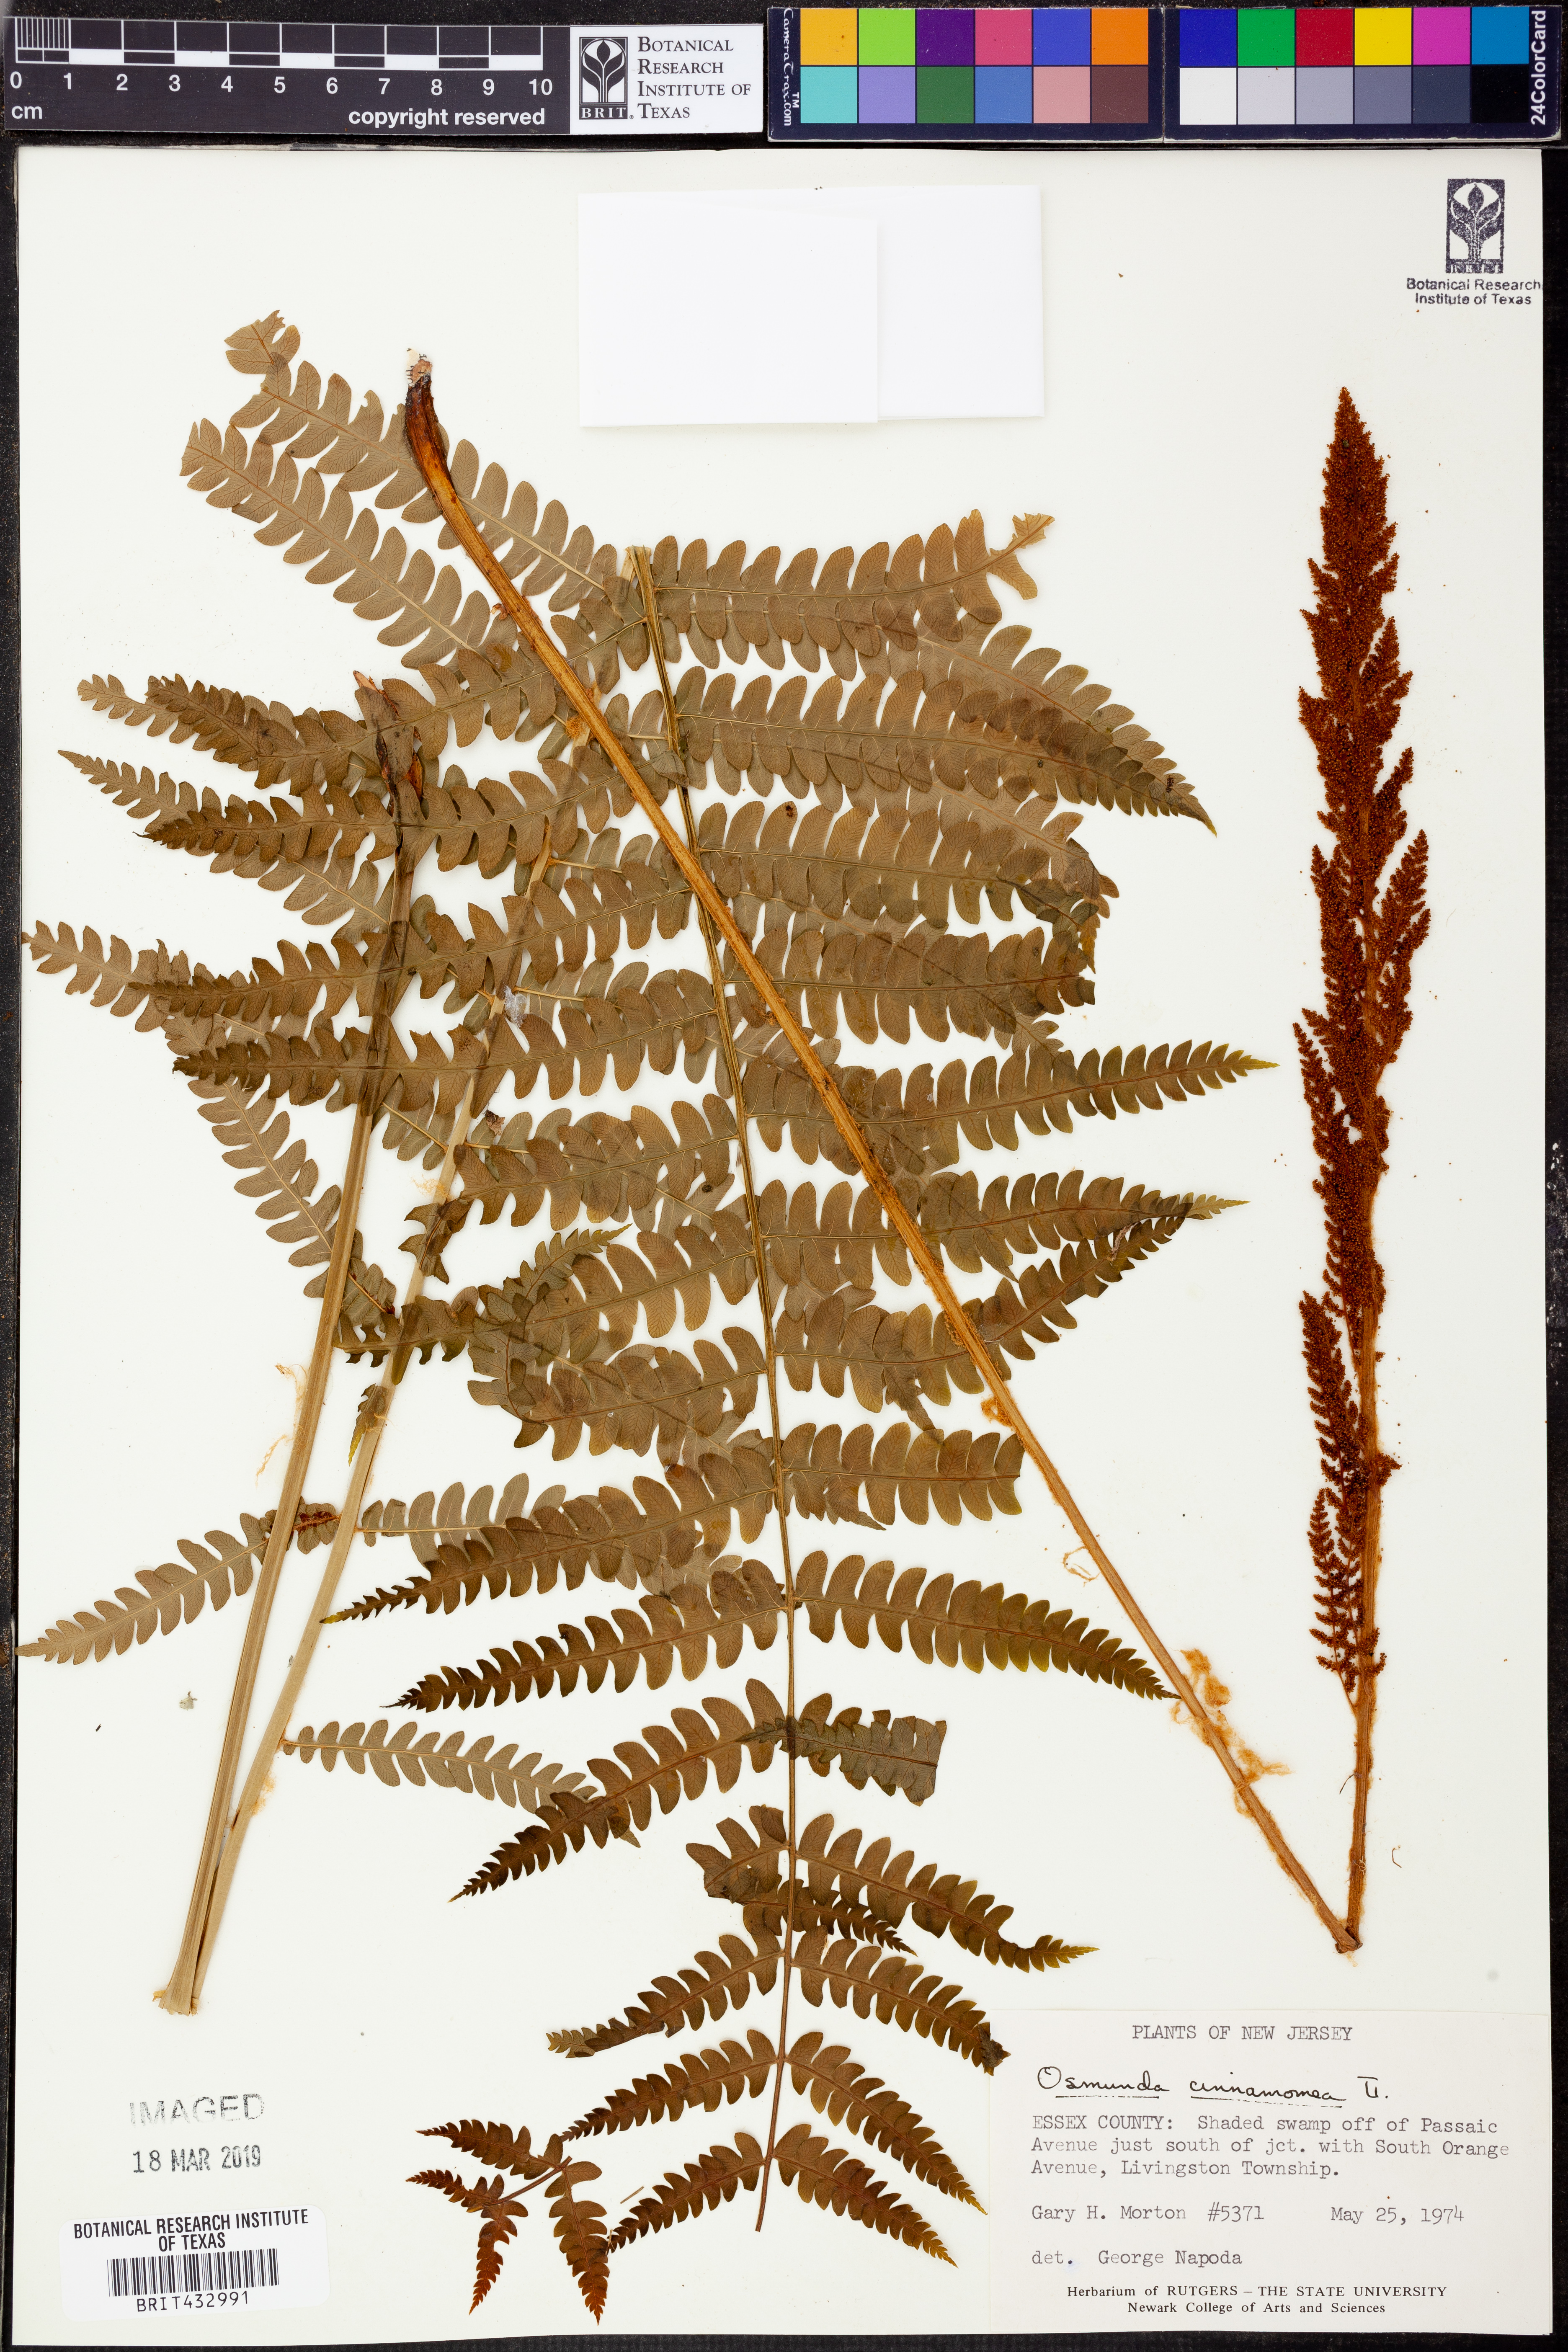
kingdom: Plantae
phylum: Tracheophyta
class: Polypodiopsida
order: Osmundales
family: Osmundaceae
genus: Osmundastrum
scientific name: Osmundastrum cinnamomeum
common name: Cinnamon fern
